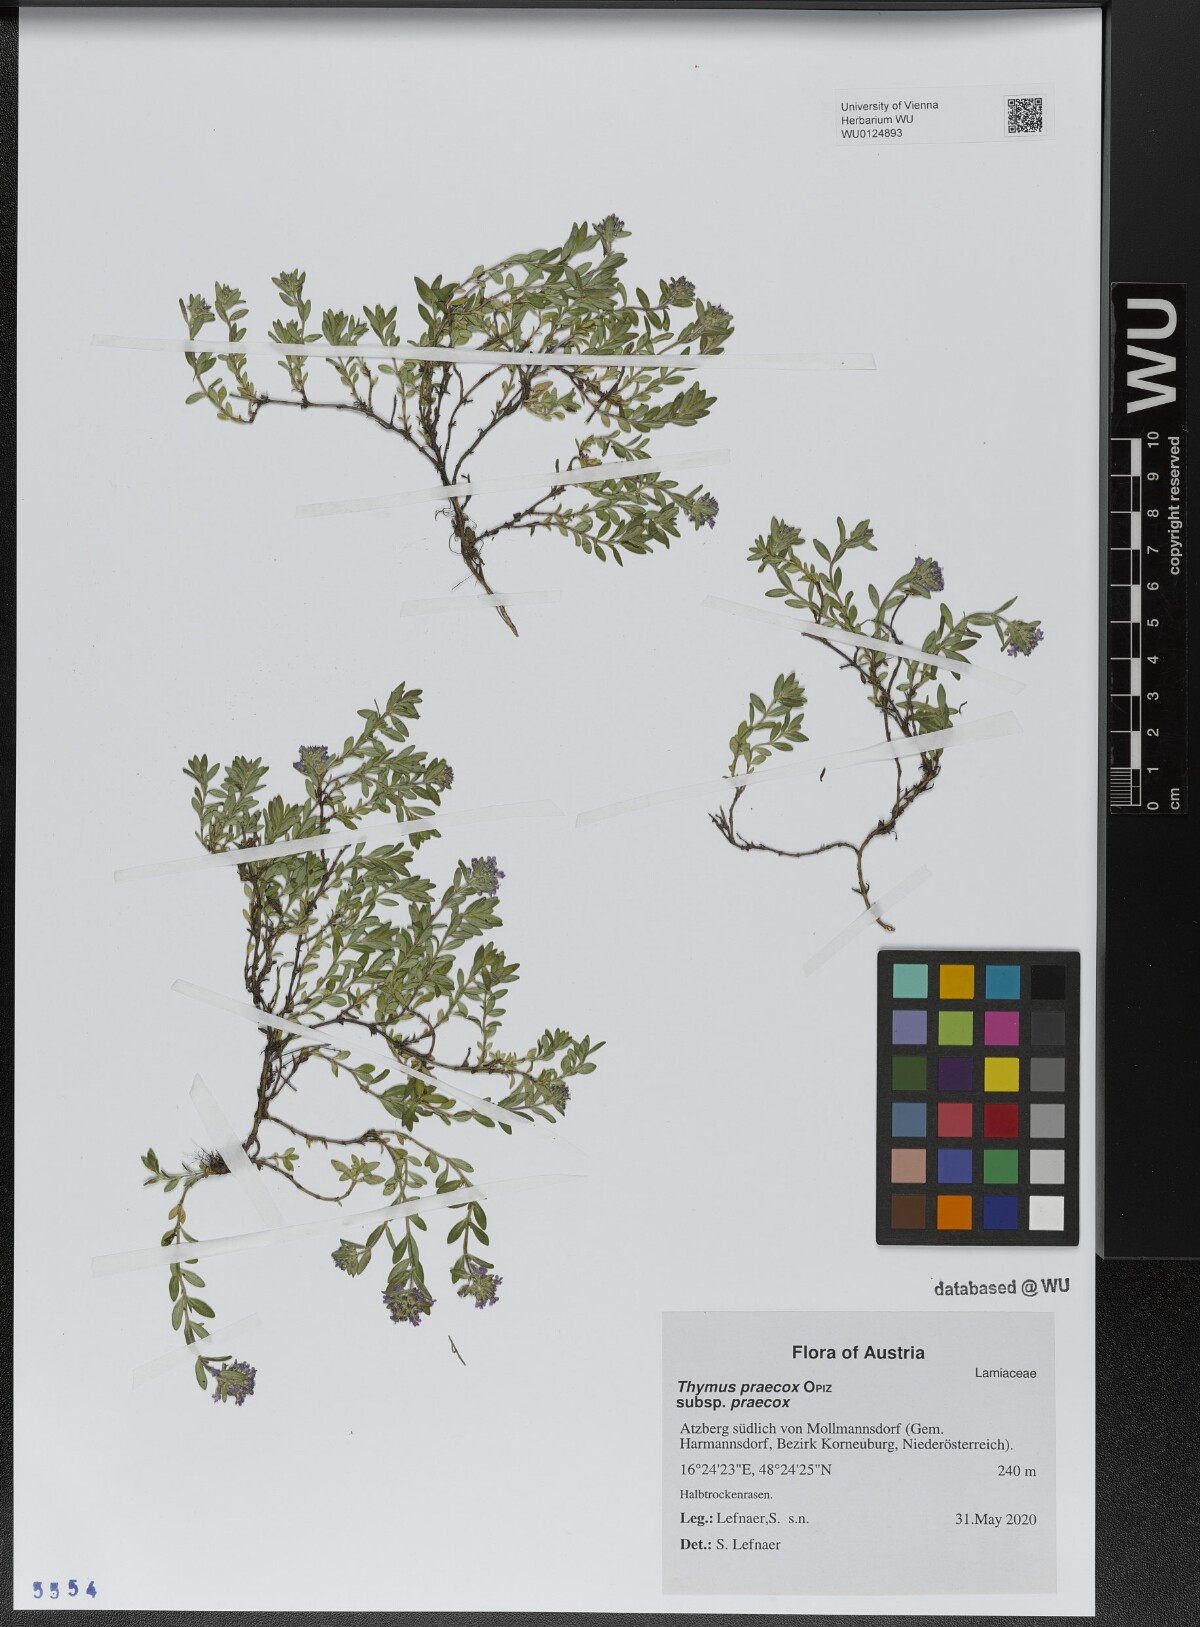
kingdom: Plantae
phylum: Tracheophyta
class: Magnoliopsida
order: Lamiales
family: Lamiaceae
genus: Thymus
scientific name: Thymus praecox
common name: Wild thyme
